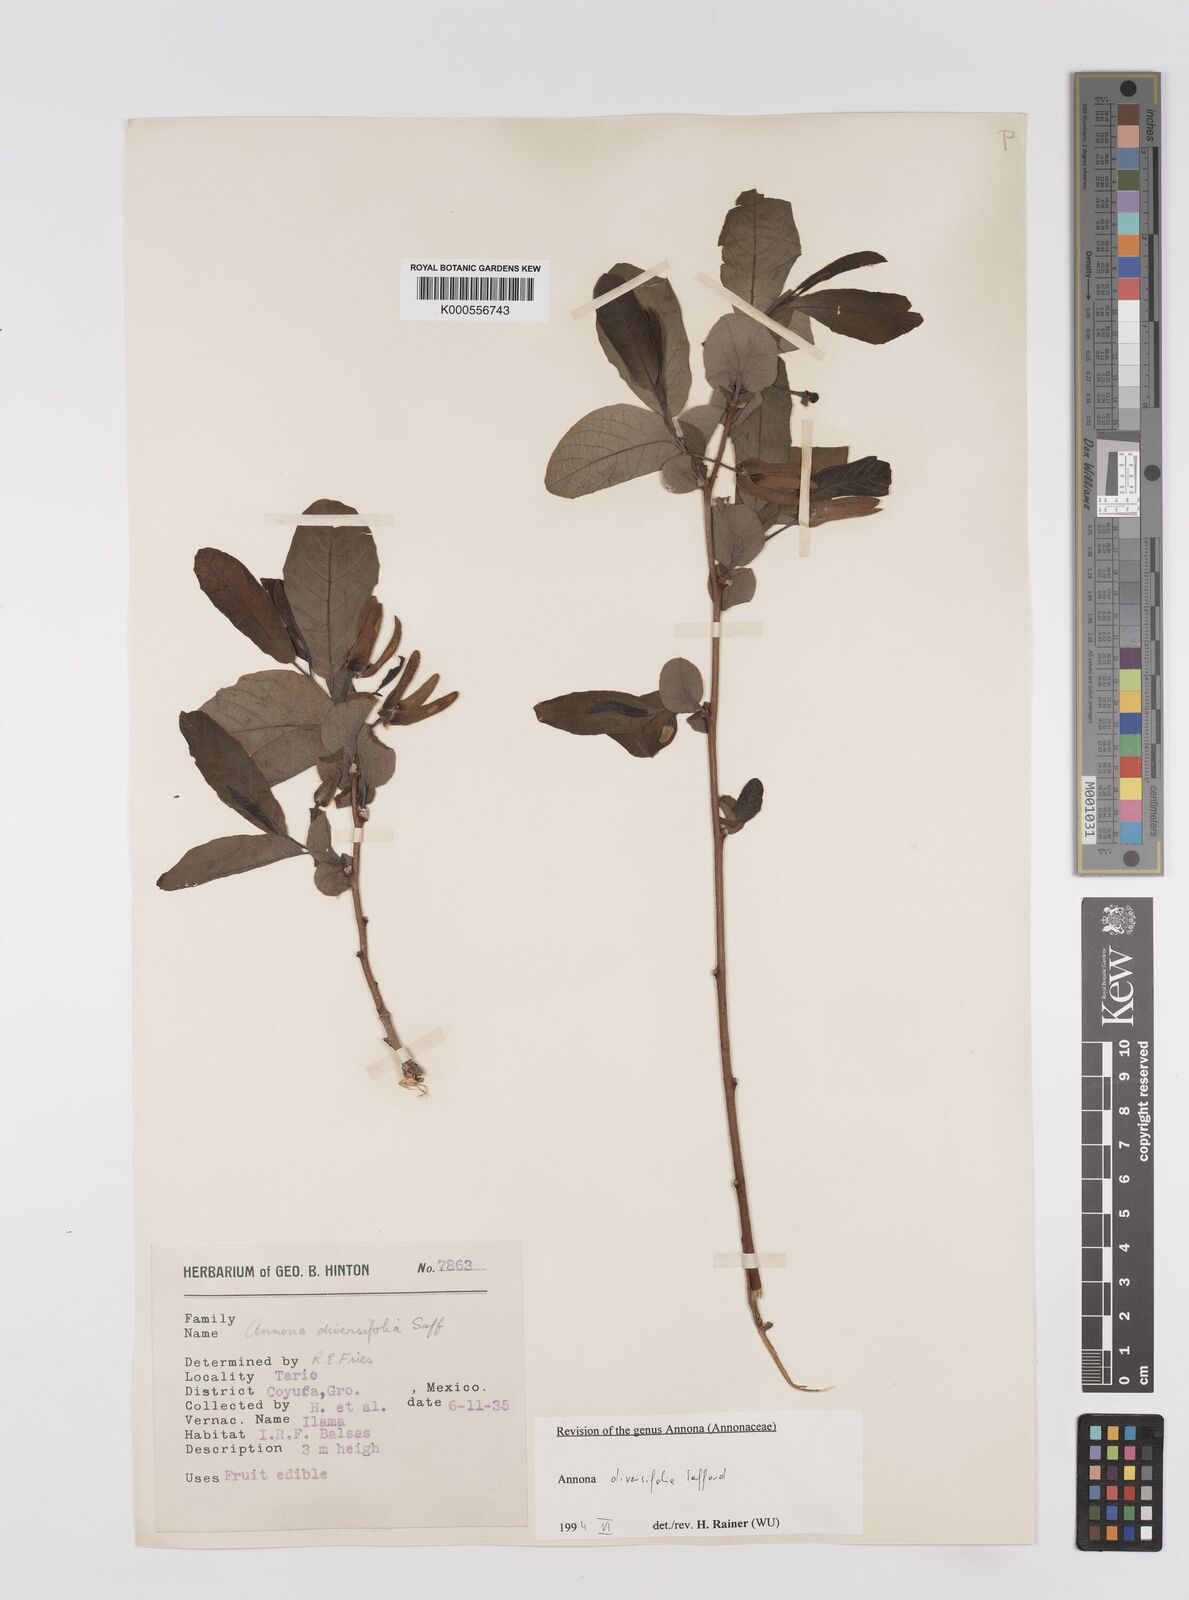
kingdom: Plantae
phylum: Tracheophyta
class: Magnoliopsida
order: Magnoliales
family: Annonaceae
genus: Annona
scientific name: Annona macroprophyllata
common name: Ilama
